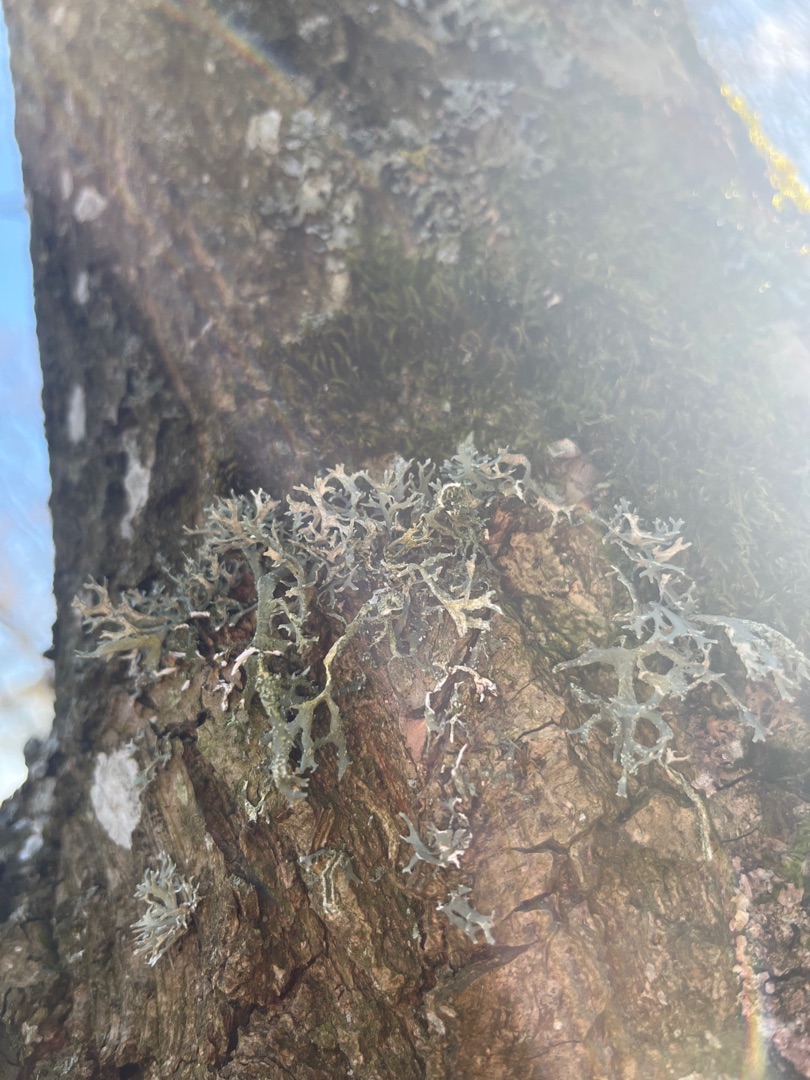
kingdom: Fungi
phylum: Ascomycota
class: Lecanoromycetes
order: Lecanorales
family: Parmeliaceae
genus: Evernia
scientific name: Evernia prunastri
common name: Almindelig slåenlav
